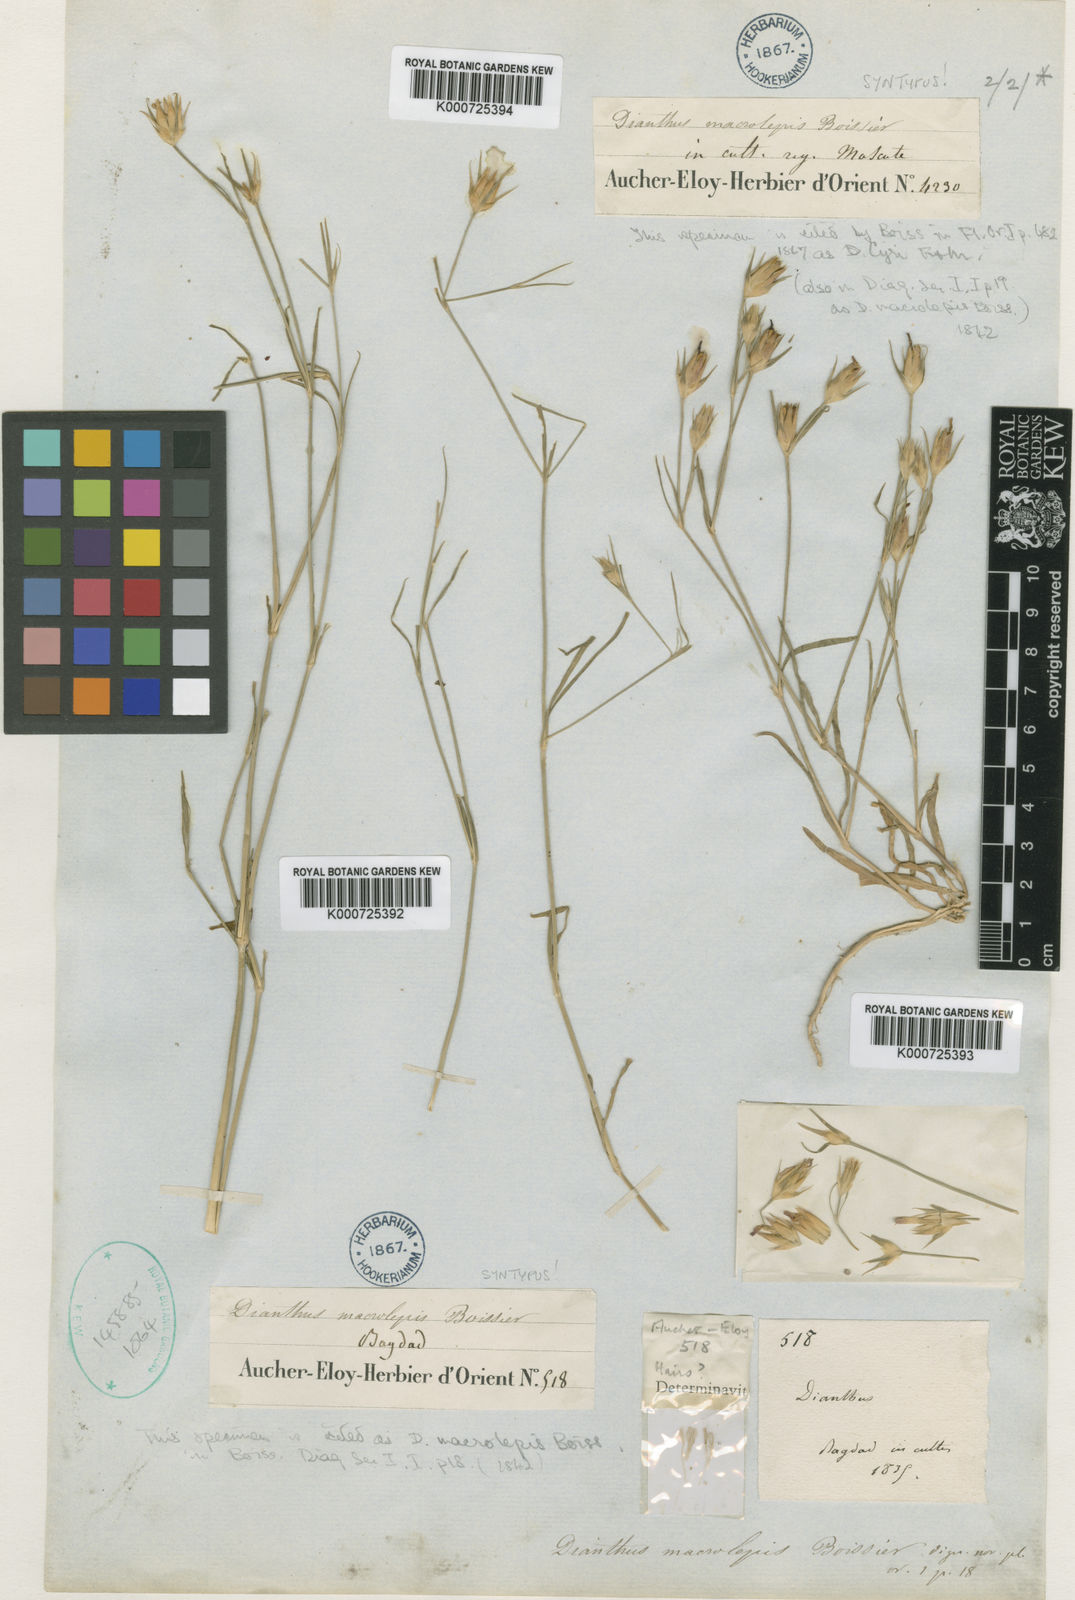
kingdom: Plantae
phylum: Tracheophyta
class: Magnoliopsida
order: Caryophyllales
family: Caryophyllaceae
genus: Dianthus
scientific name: Dianthus cyri
